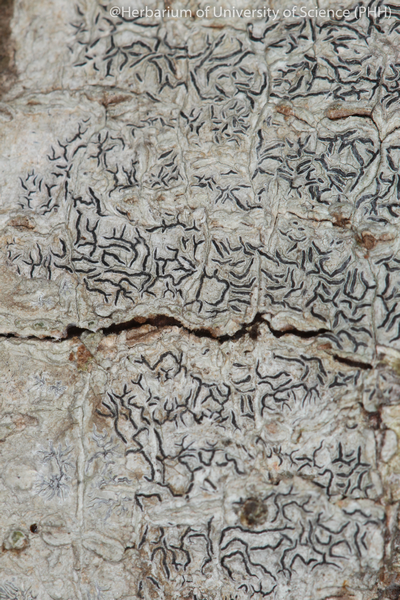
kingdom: Fungi
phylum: Ascomycota
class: Lecanoromycetes
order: Ostropales
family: Graphidaceae
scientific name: Graphidaceae
